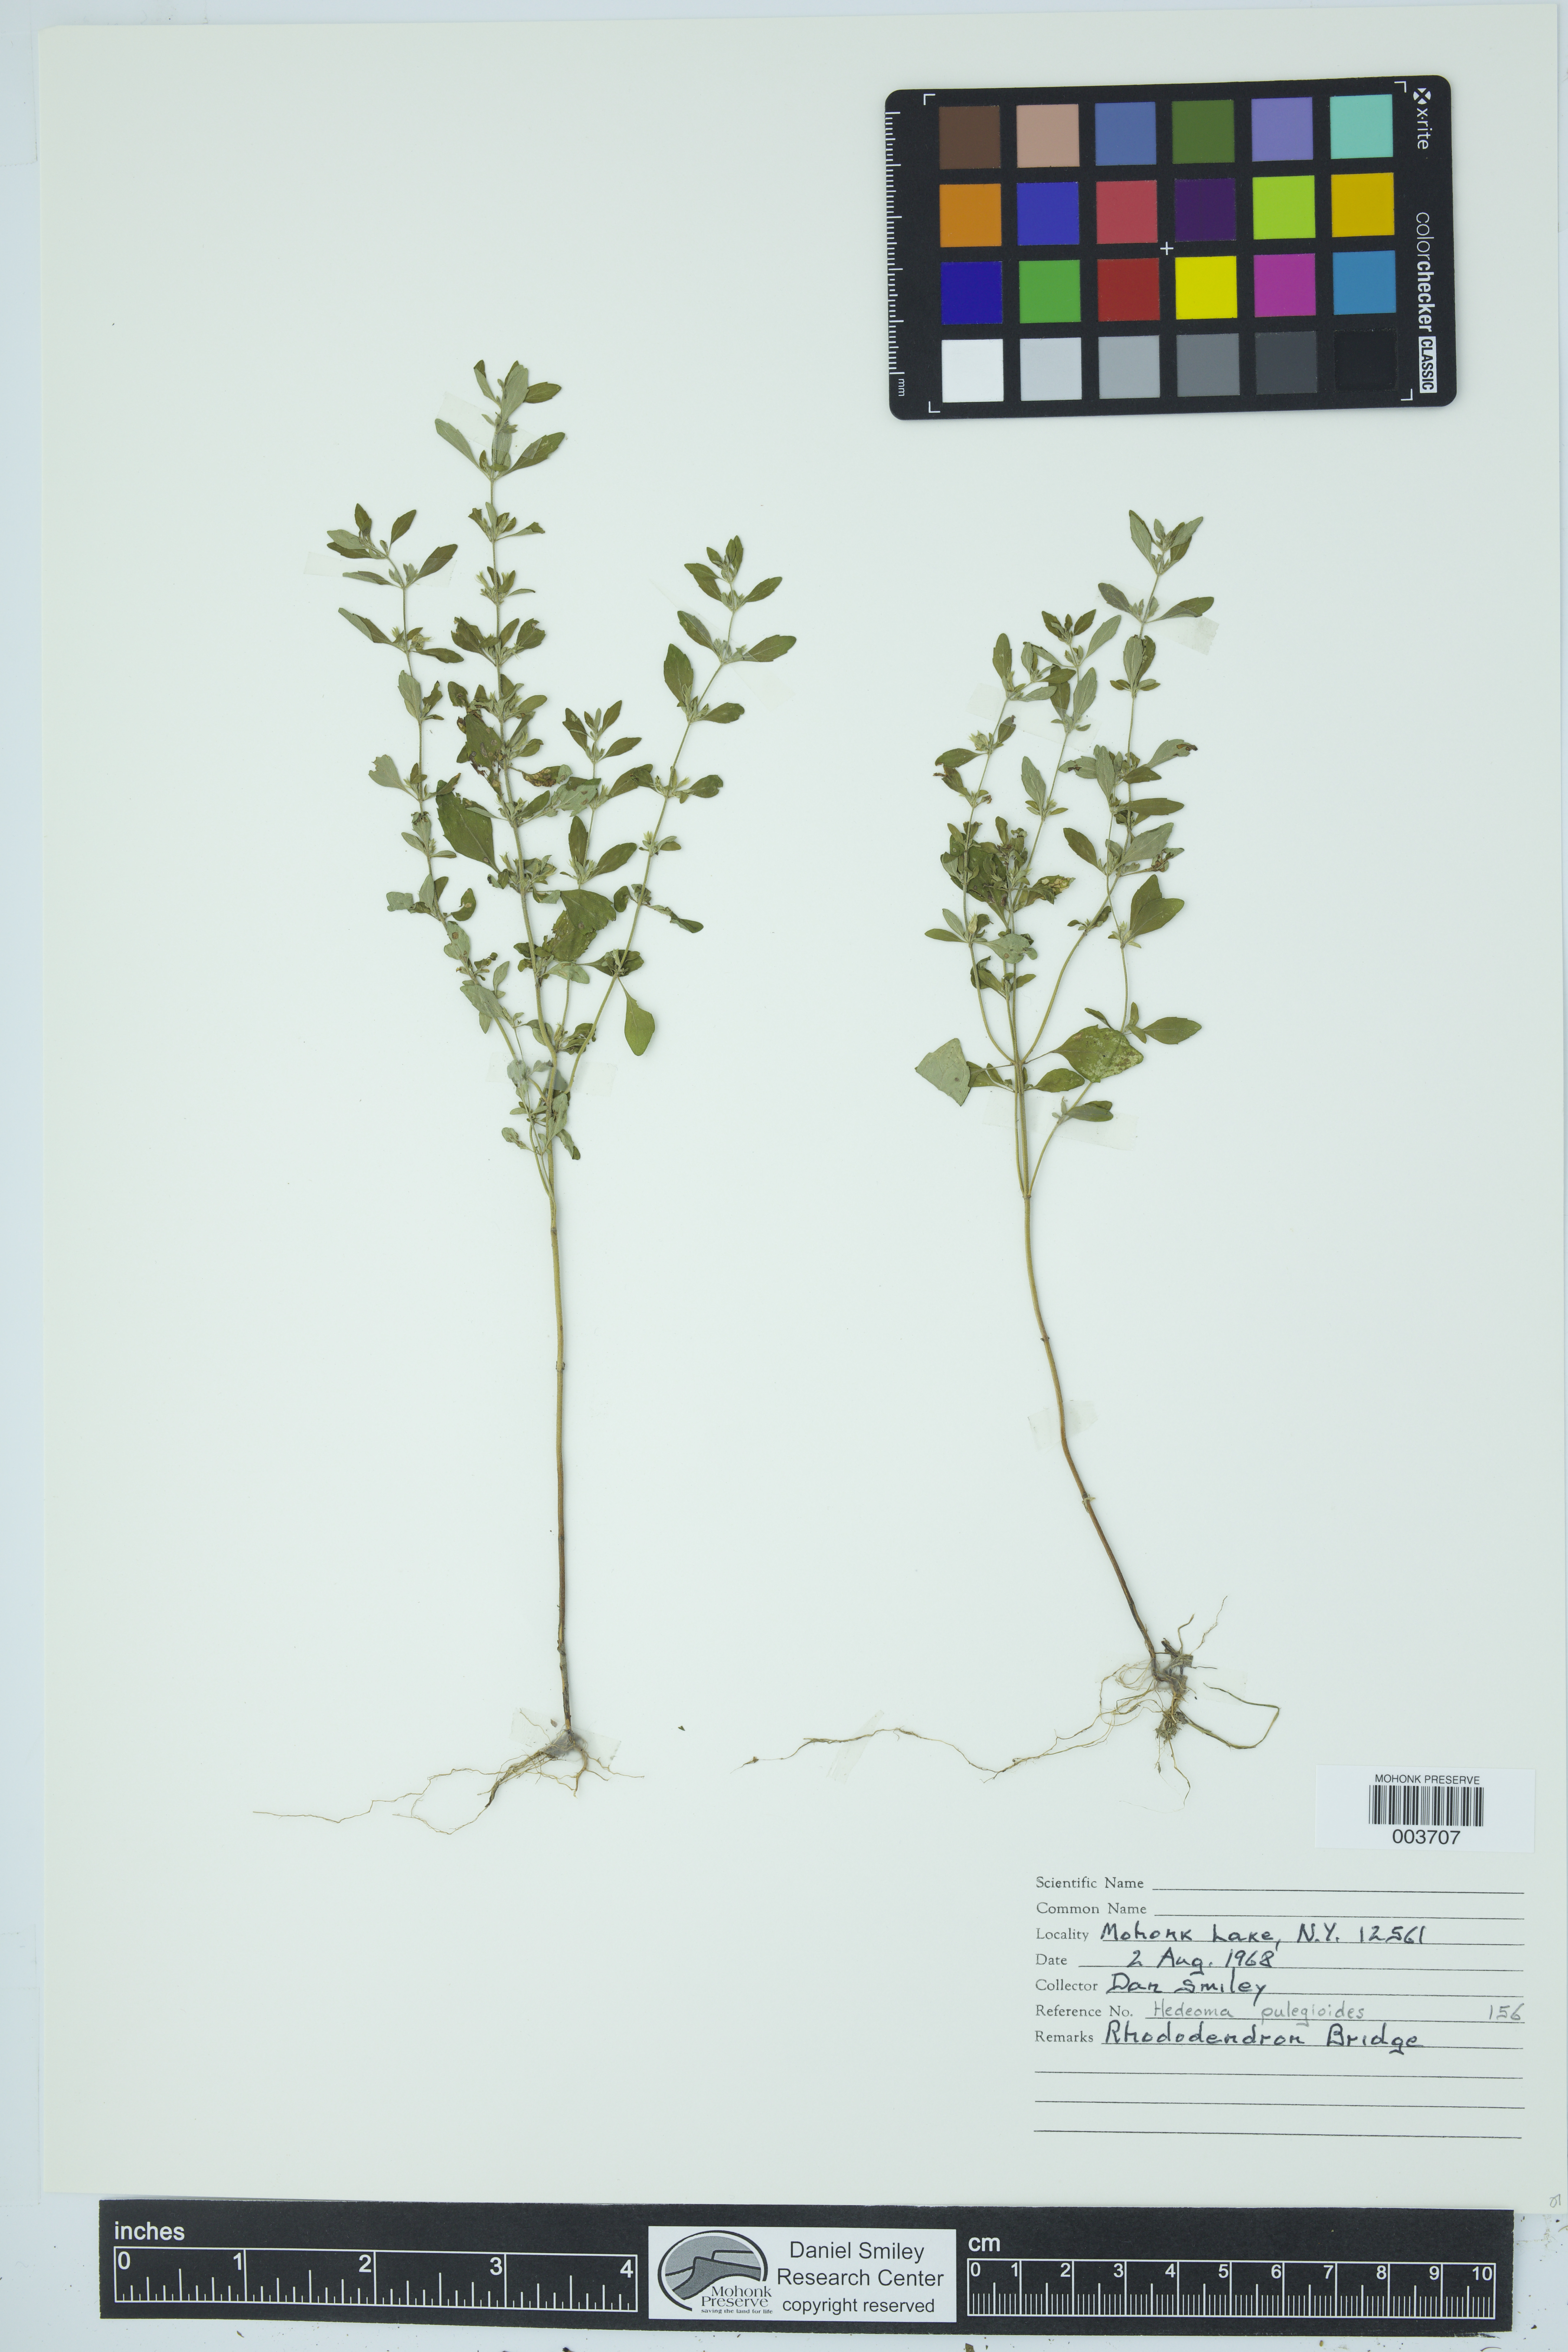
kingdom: Plantae
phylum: Tracheophyta
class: Magnoliopsida
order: Lamiales
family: Lamiaceae
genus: Hedeoma
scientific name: Hedeoma pulegioides
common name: American false pennyroyal
